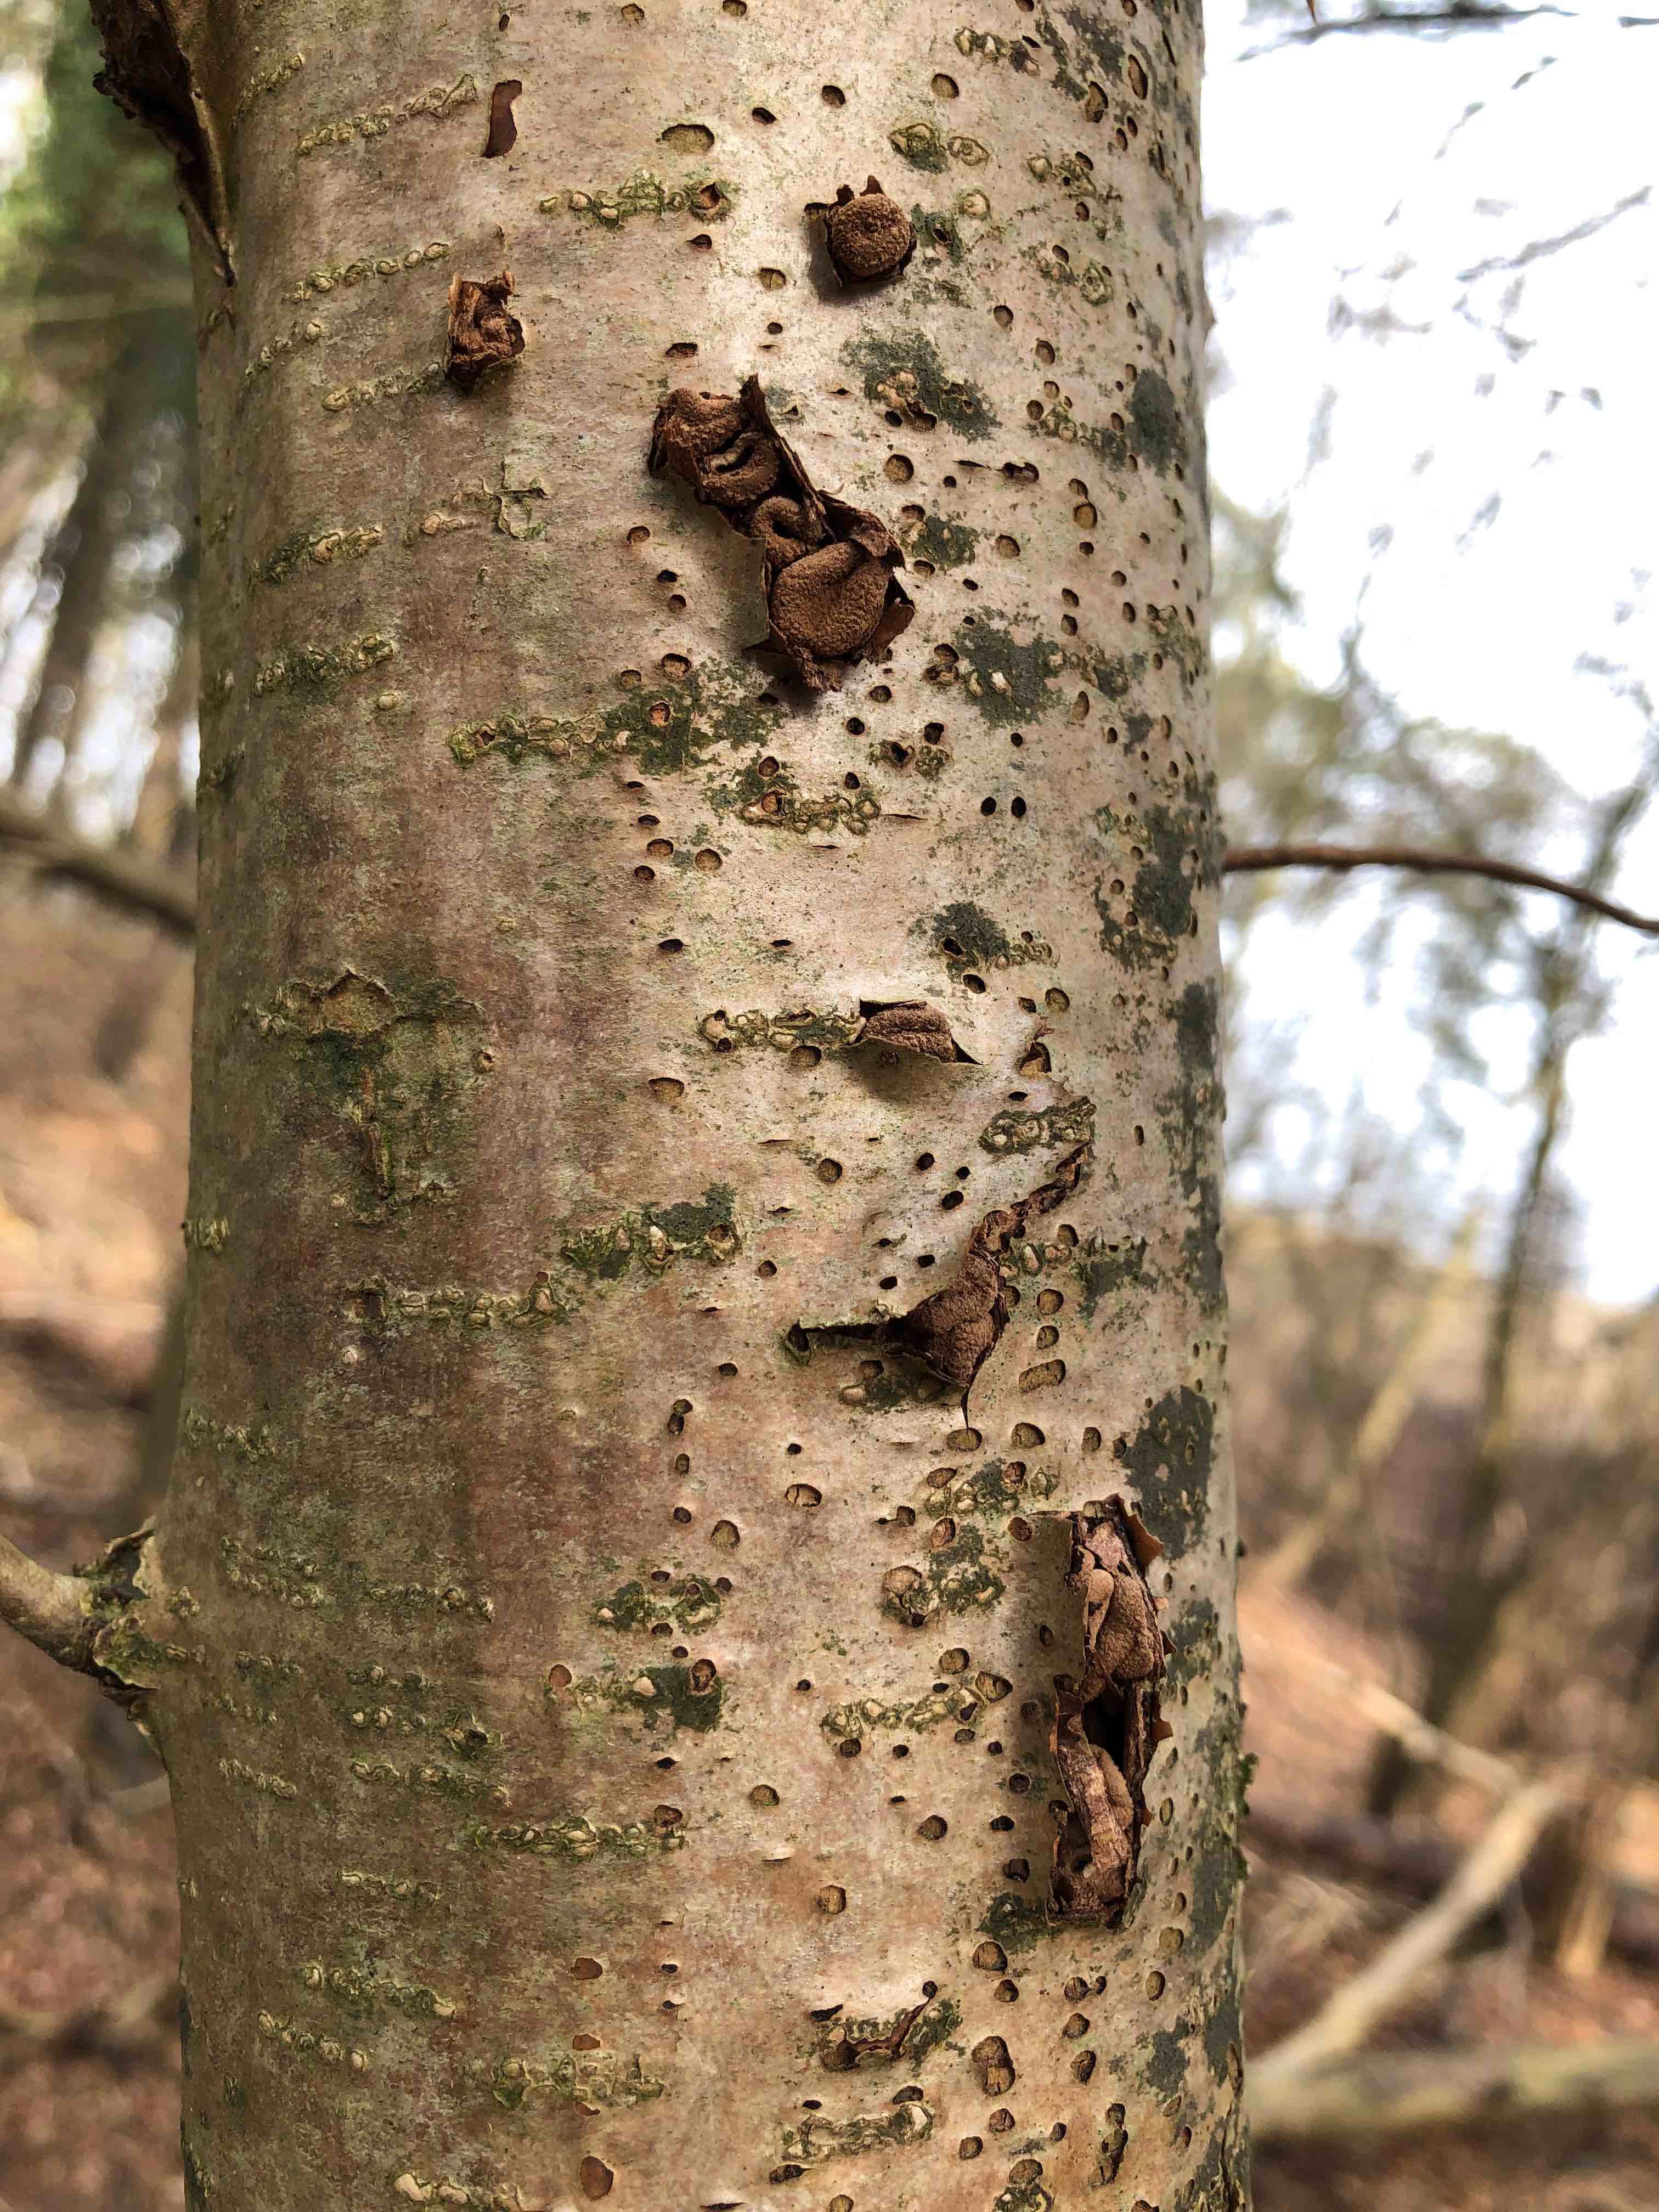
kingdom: Fungi
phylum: Ascomycota
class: Leotiomycetes
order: Helotiales
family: Cenangiaceae
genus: Encoelia
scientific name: Encoelia furfuracea
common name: hassel-læderskive
